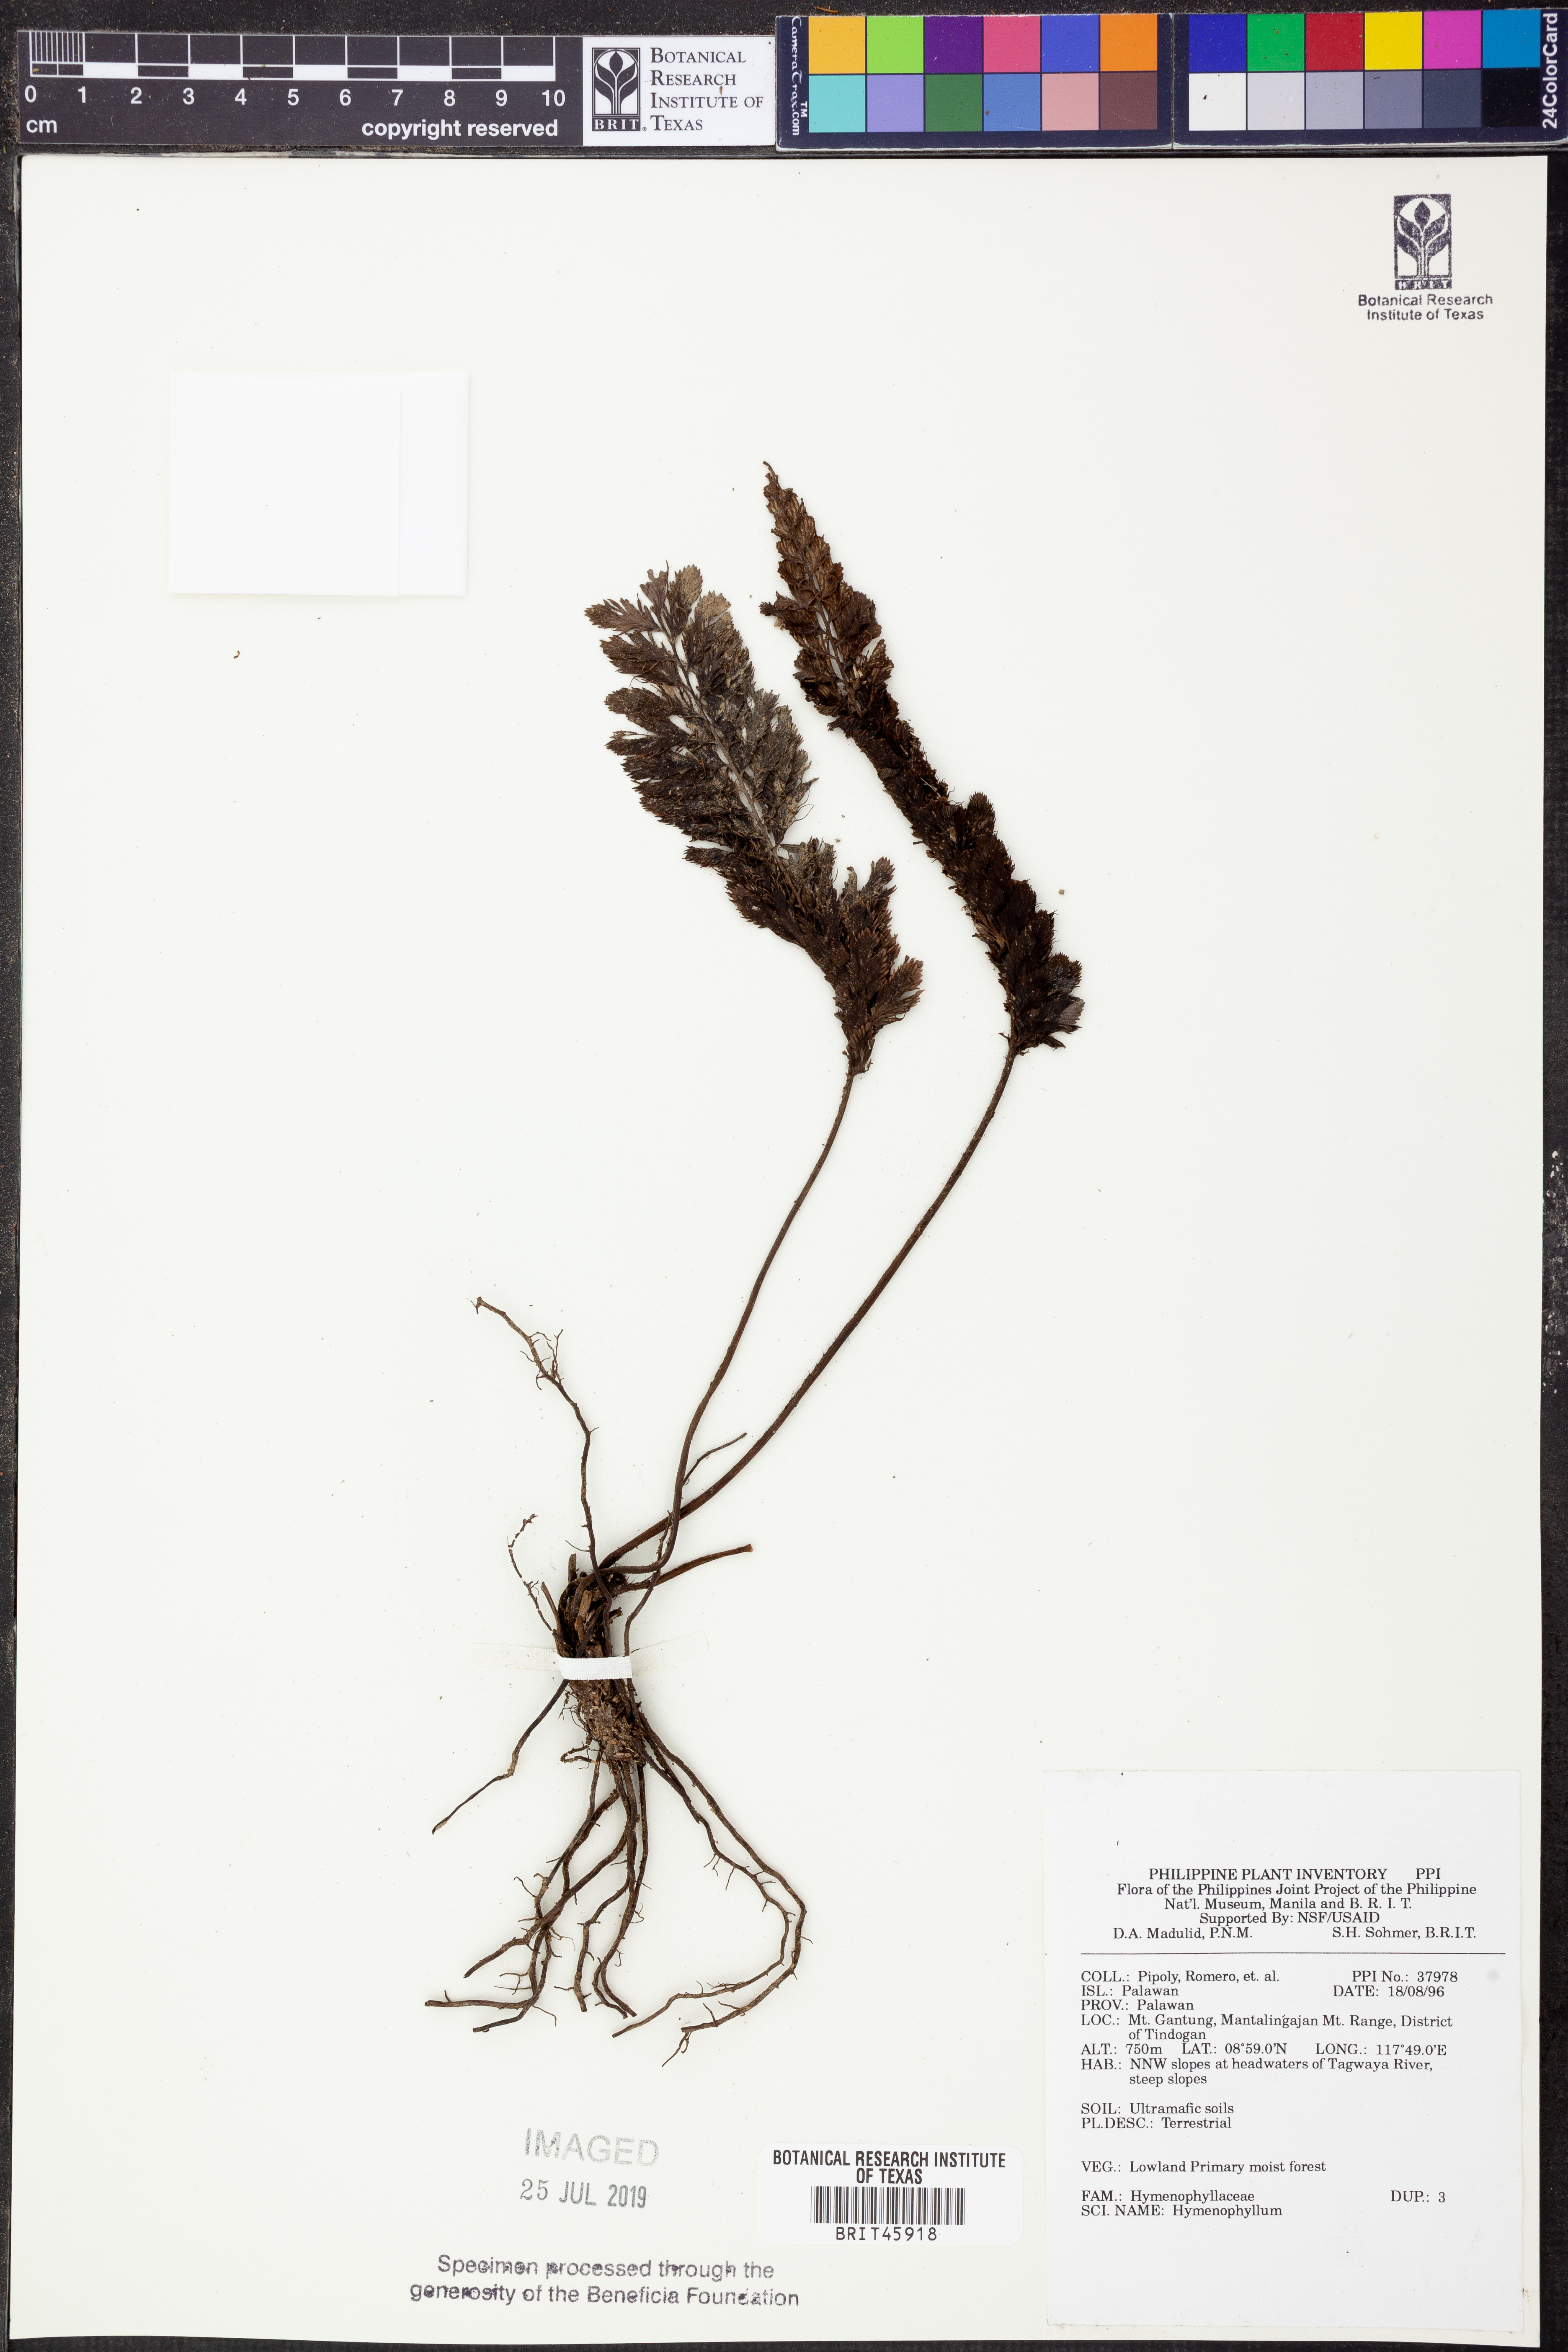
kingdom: Plantae
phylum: Tracheophyta
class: Polypodiopsida
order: Hymenophyllales
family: Hymenophyllaceae
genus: Hymenophyllum
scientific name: Hymenophyllum
